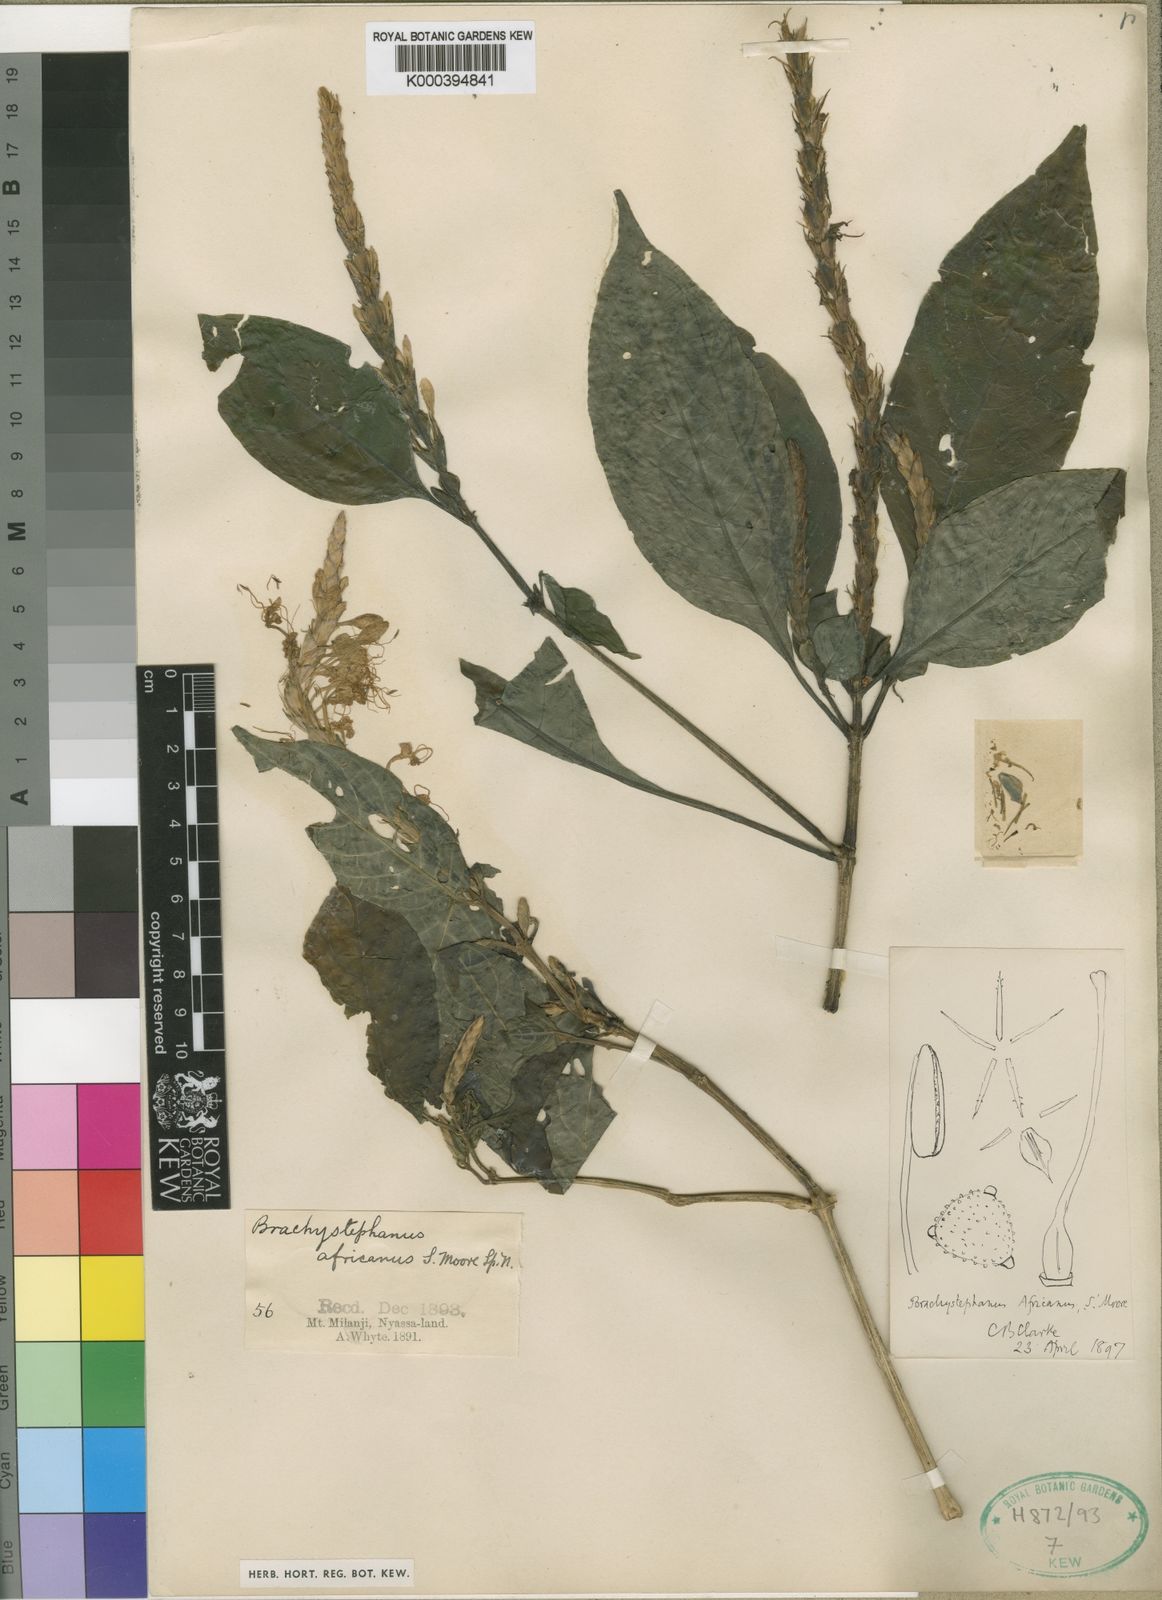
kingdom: Plantae
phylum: Tracheophyta
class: Magnoliopsida
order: Lamiales
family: Acanthaceae
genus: Brachystephanus
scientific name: Brachystephanus africanus
